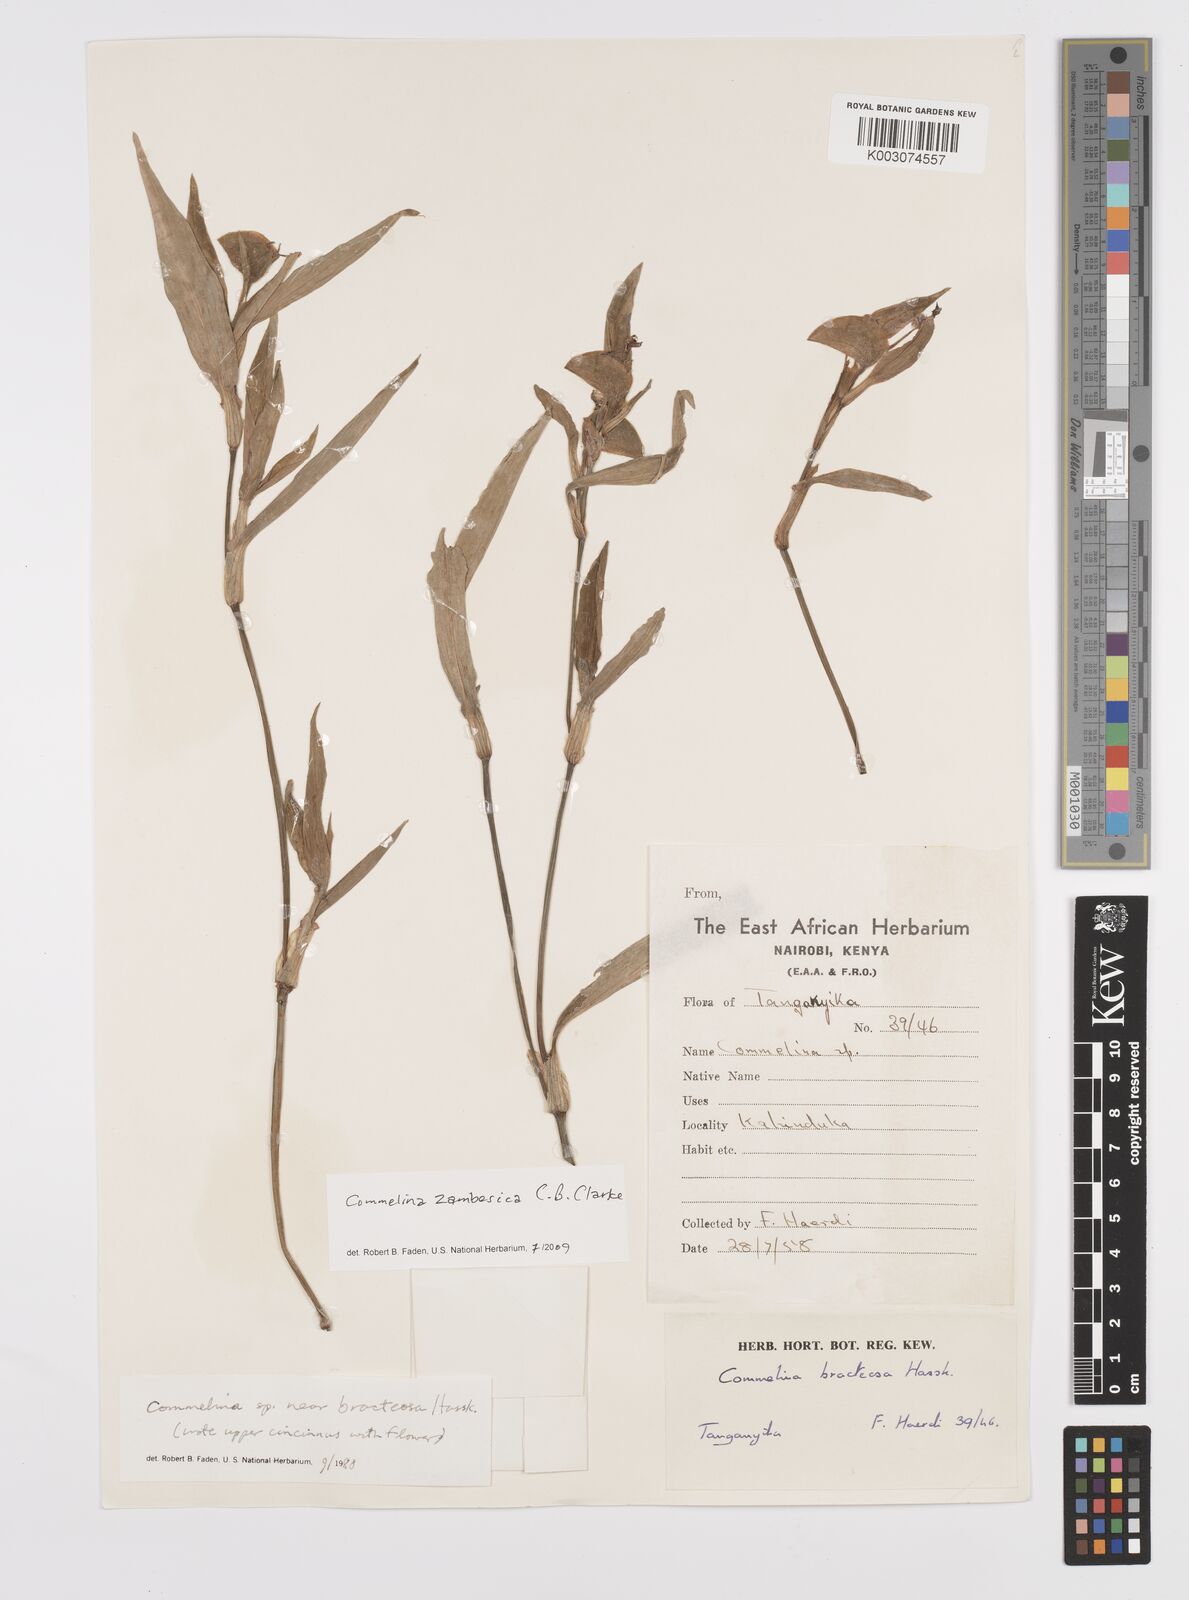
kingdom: Plantae
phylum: Tracheophyta
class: Liliopsida
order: Commelinales
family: Commelinaceae
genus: Commelina
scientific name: Commelina zambesica
